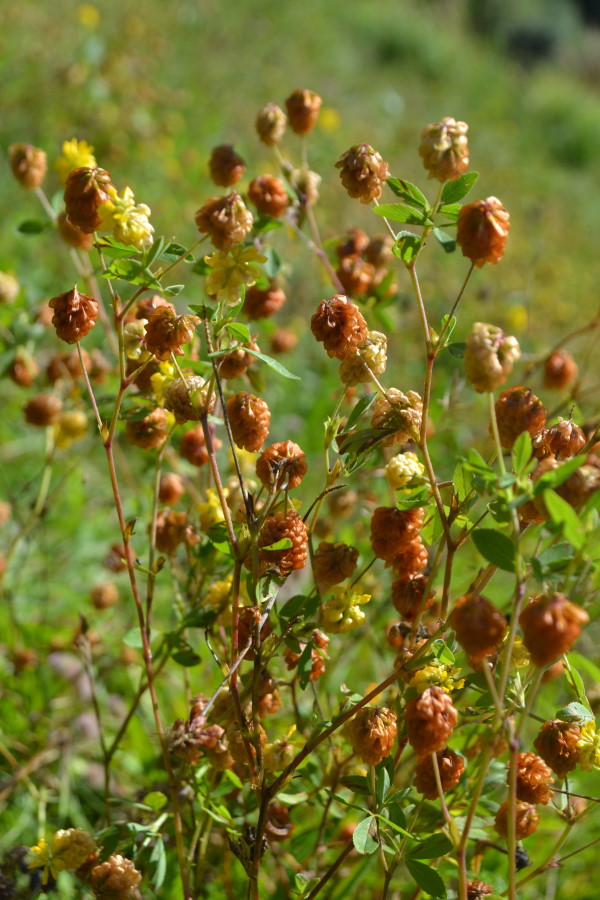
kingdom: Plantae
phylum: Tracheophyta
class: Magnoliopsida
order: Fabales
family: Fabaceae
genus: Trifolium
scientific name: Trifolium aureum
